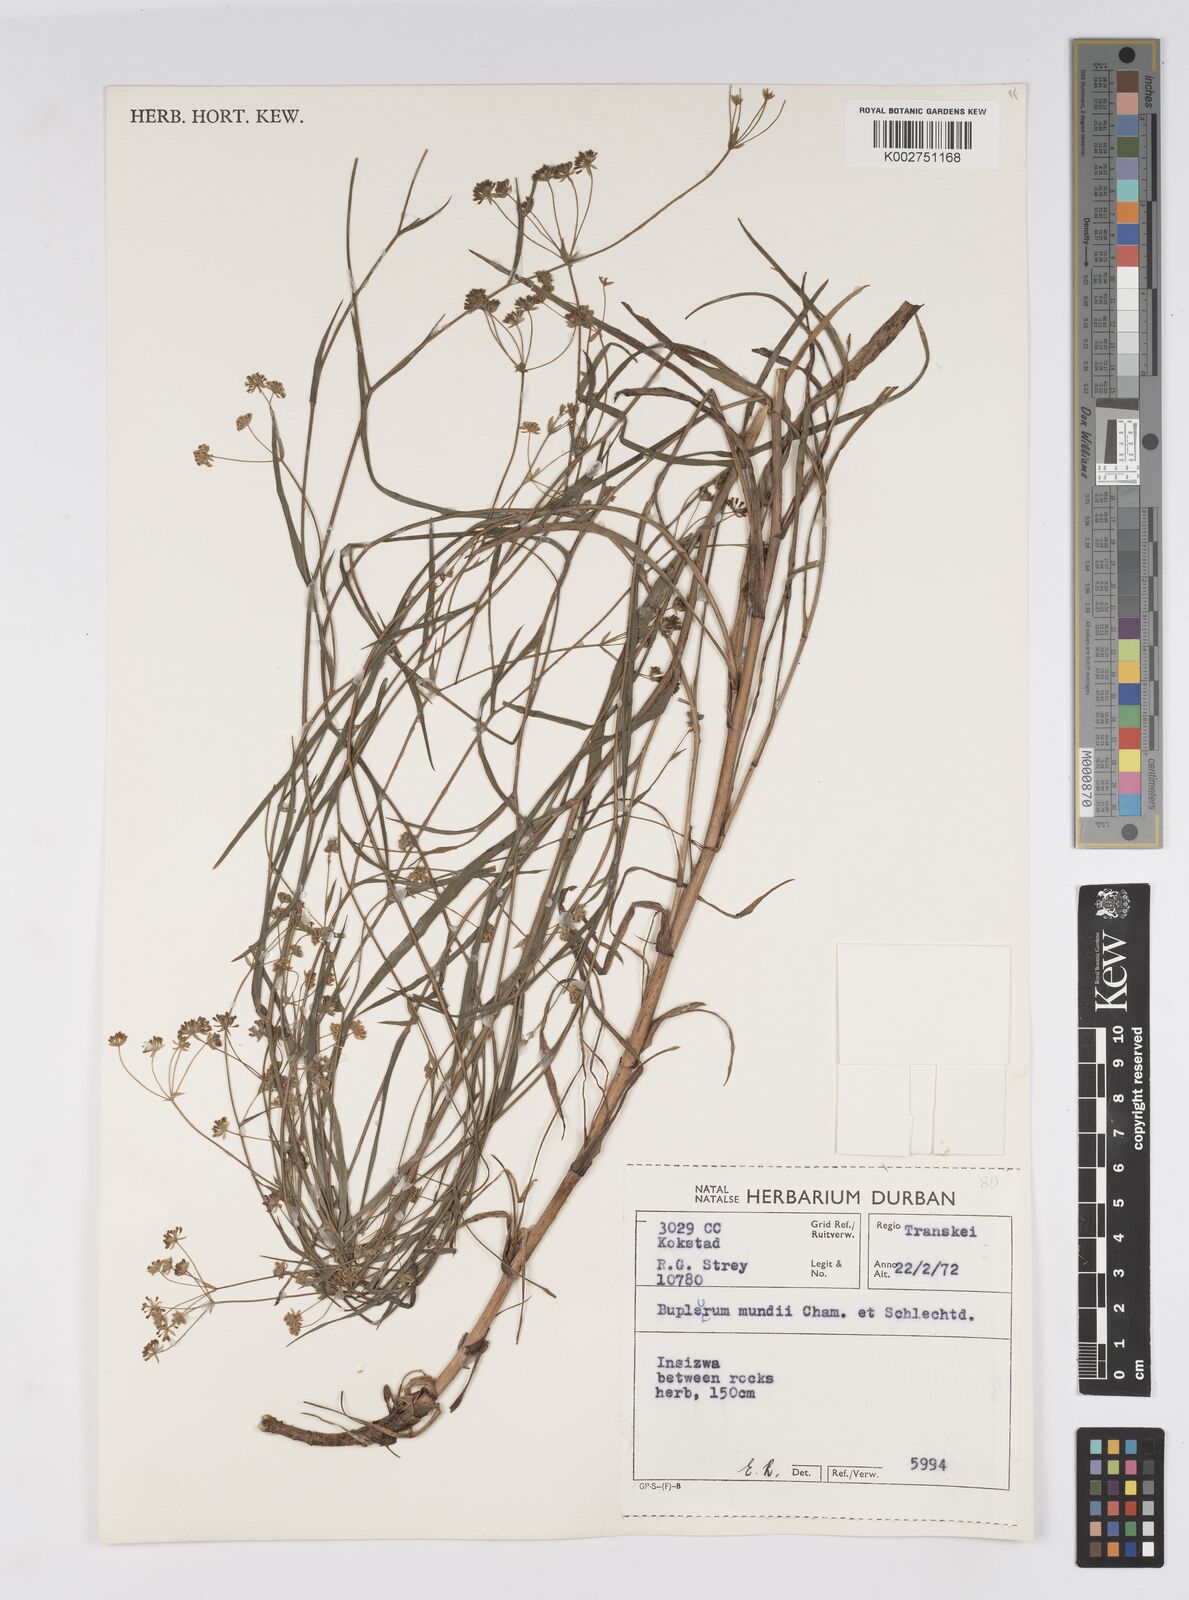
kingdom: Plantae
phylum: Tracheophyta
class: Magnoliopsida
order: Apiales
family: Apiaceae
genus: Bupleurum
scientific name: Bupleurum mundii
